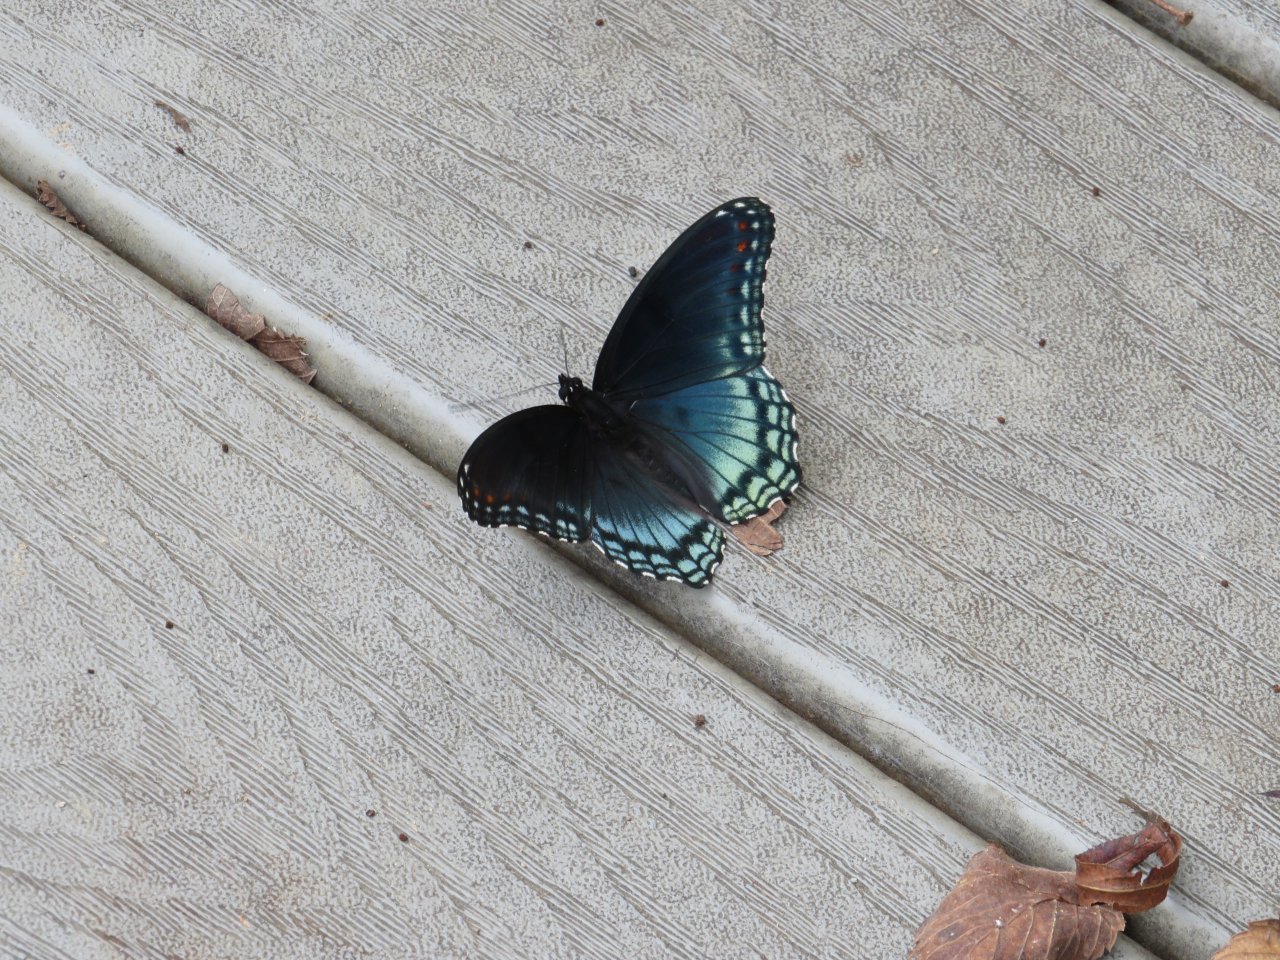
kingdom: Animalia
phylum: Arthropoda
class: Insecta
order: Lepidoptera
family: Nymphalidae
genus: Limenitis
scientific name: Limenitis arthemis
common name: Red-spotted Admiral
